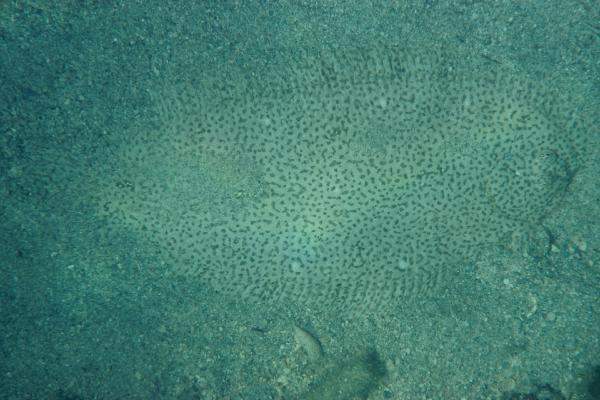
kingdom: Animalia
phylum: Chordata
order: Pleuronectiformes
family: Soleidae
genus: Pardachirus
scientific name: Pardachirus marmoratus
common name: Finless sole
